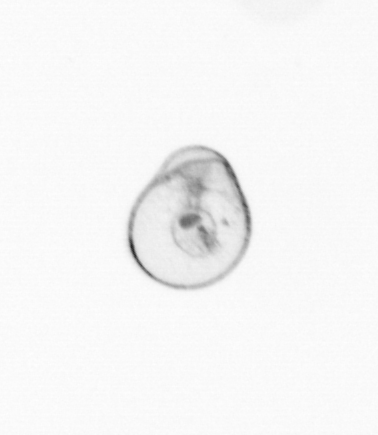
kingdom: Chromista
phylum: Myzozoa
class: Dinophyceae
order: Noctilucales
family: Noctilucaceae
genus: Noctiluca
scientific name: Noctiluca scintillans
